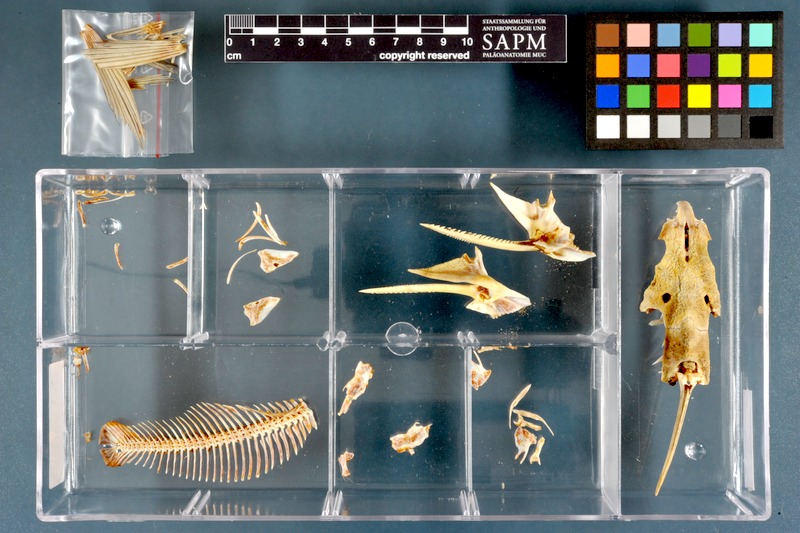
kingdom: Animalia
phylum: Chordata
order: Siluriformes
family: Mochokidae
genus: Synodontis
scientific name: Synodontis schall
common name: Wahrindi
